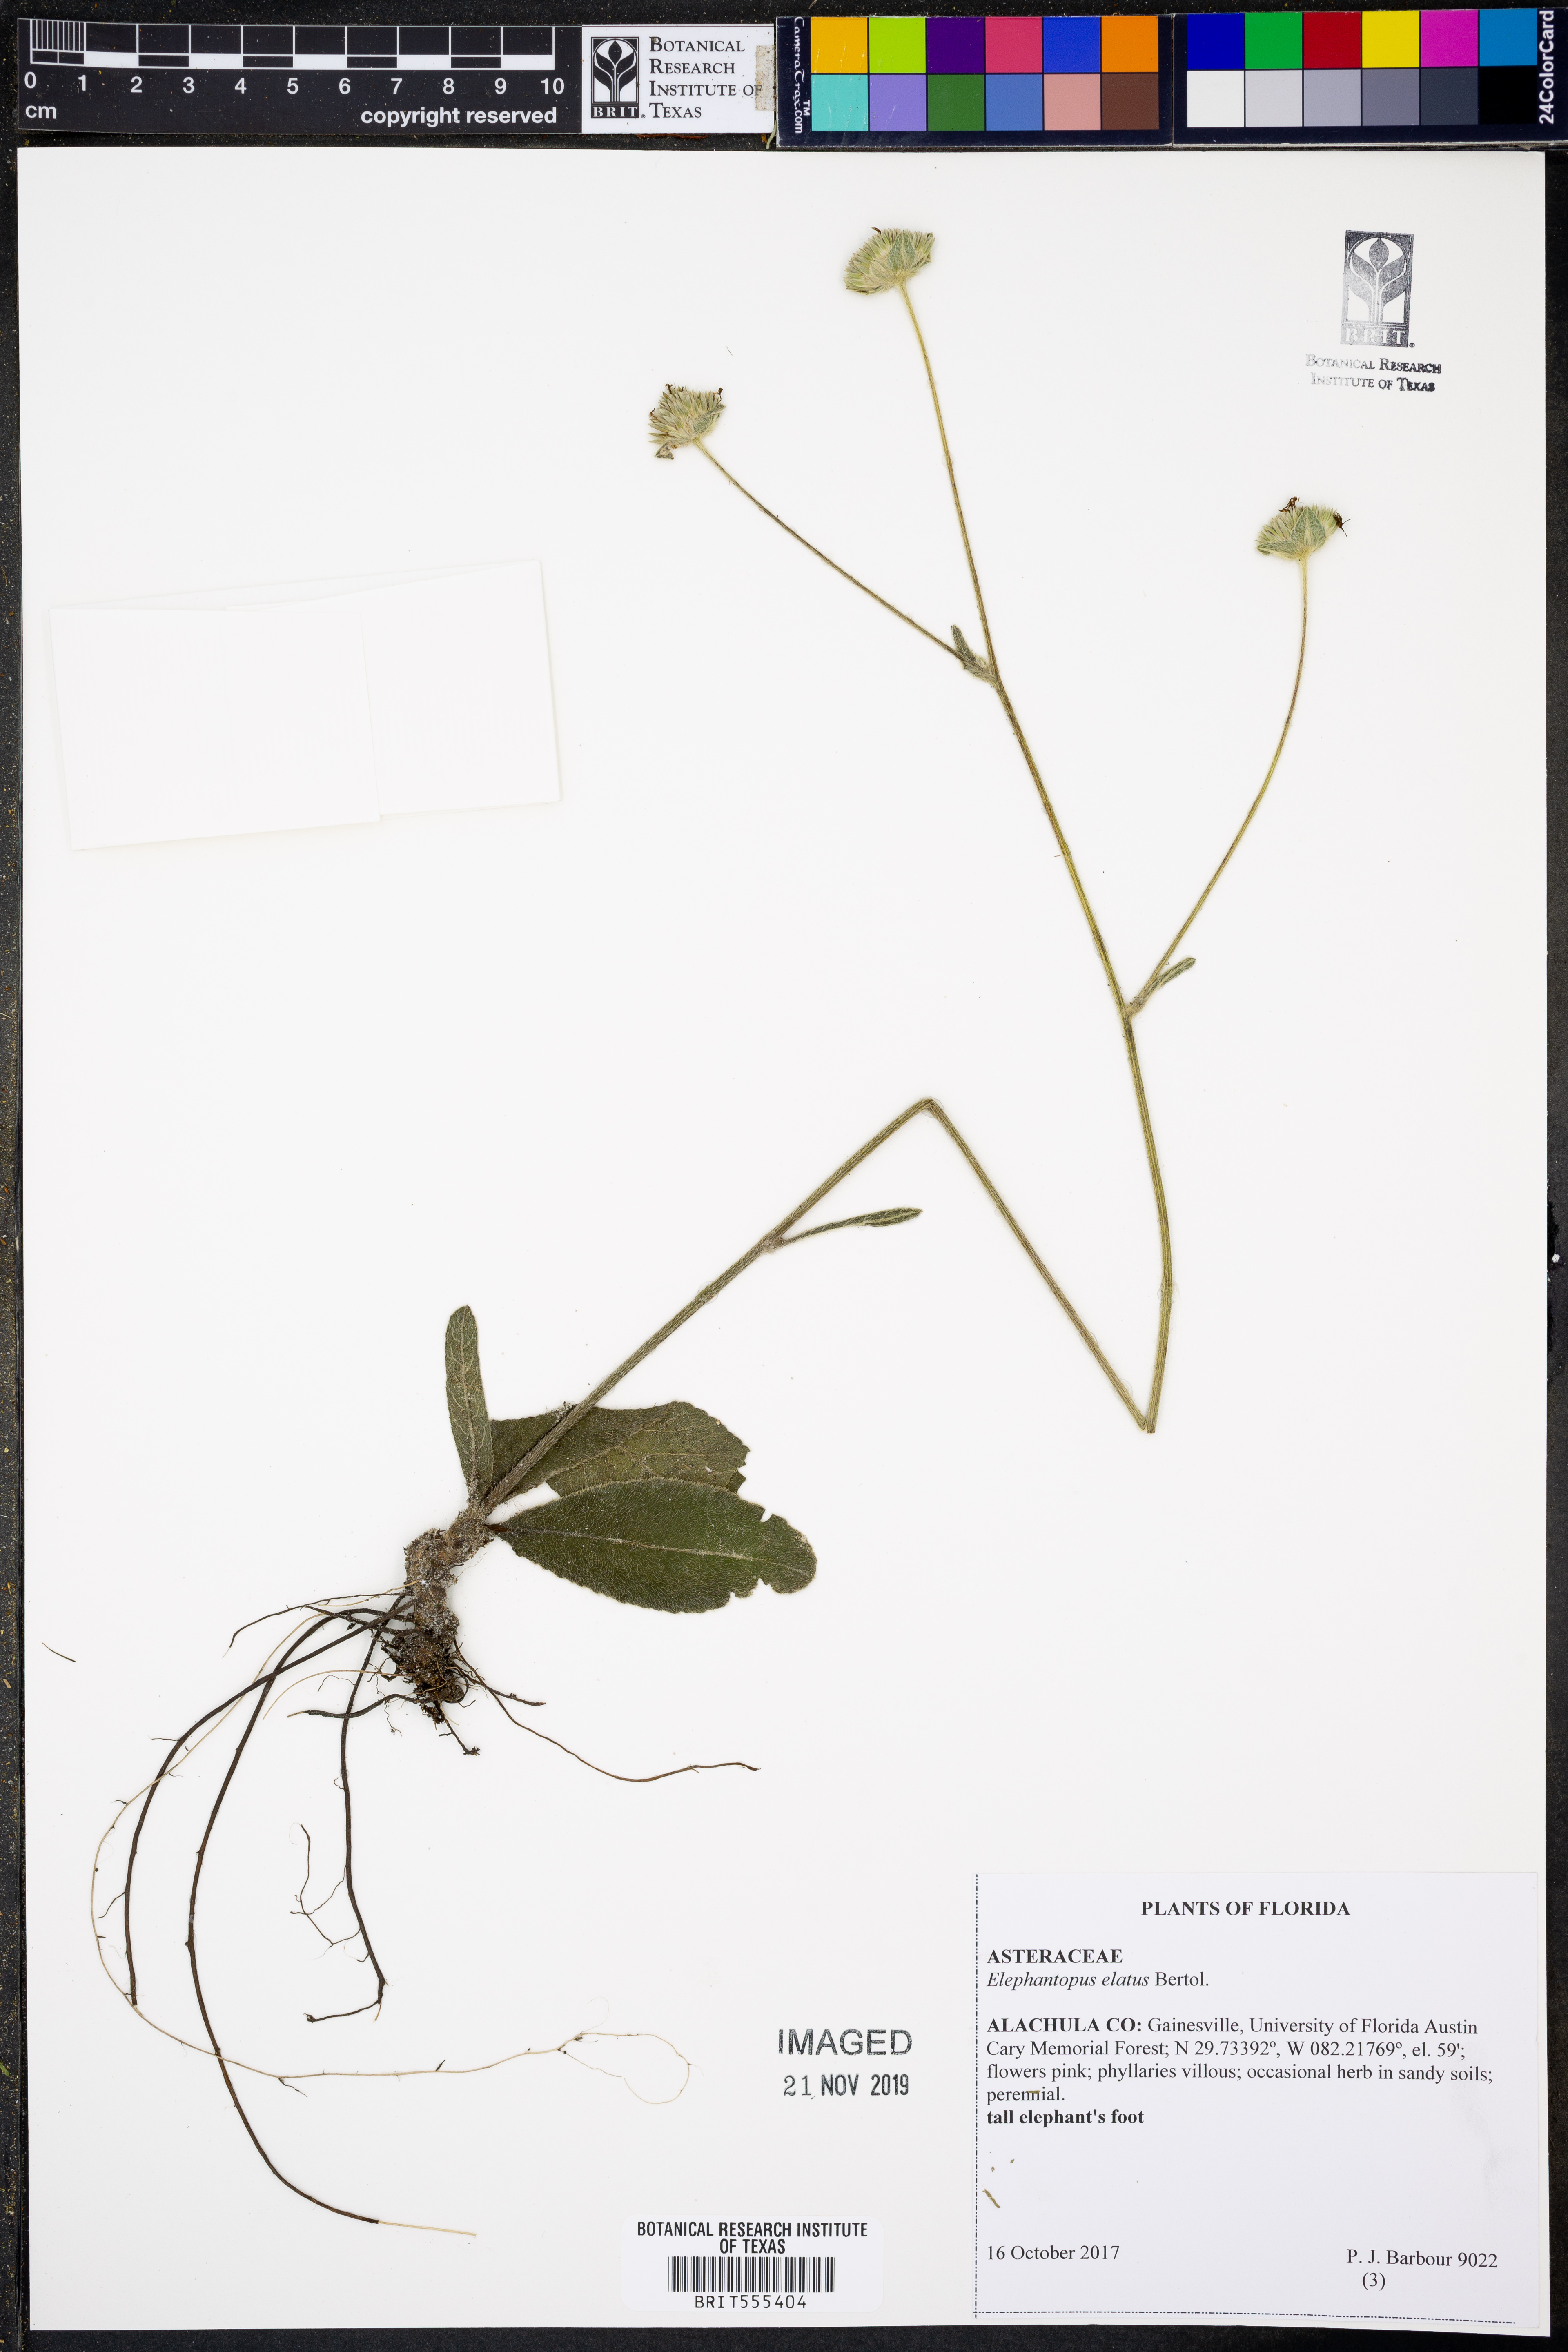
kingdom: Plantae
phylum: Tracheophyta
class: Magnoliopsida
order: Asterales
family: Asteraceae
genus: Elephantopus
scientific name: Elephantopus elatus
